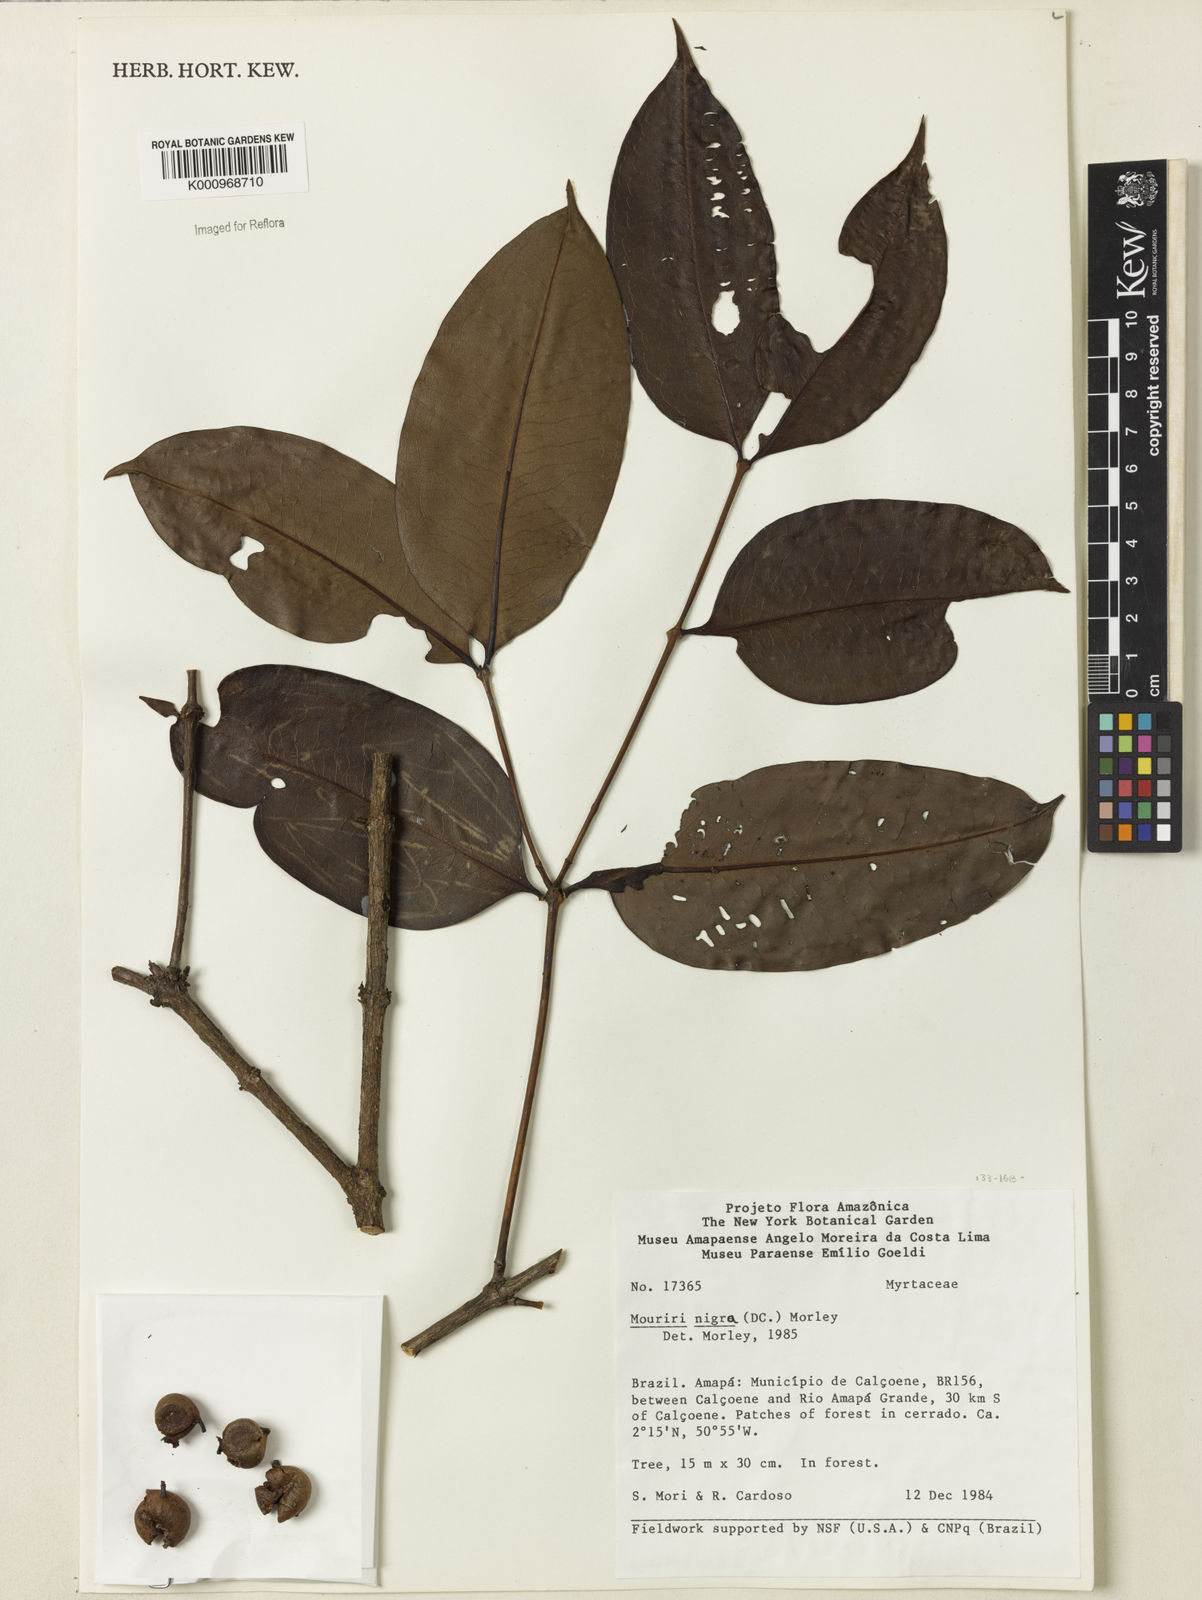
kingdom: Plantae
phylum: Tracheophyta
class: Magnoliopsida
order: Myrtales
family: Melastomataceae
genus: Mouriri
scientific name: Mouriri nigra
